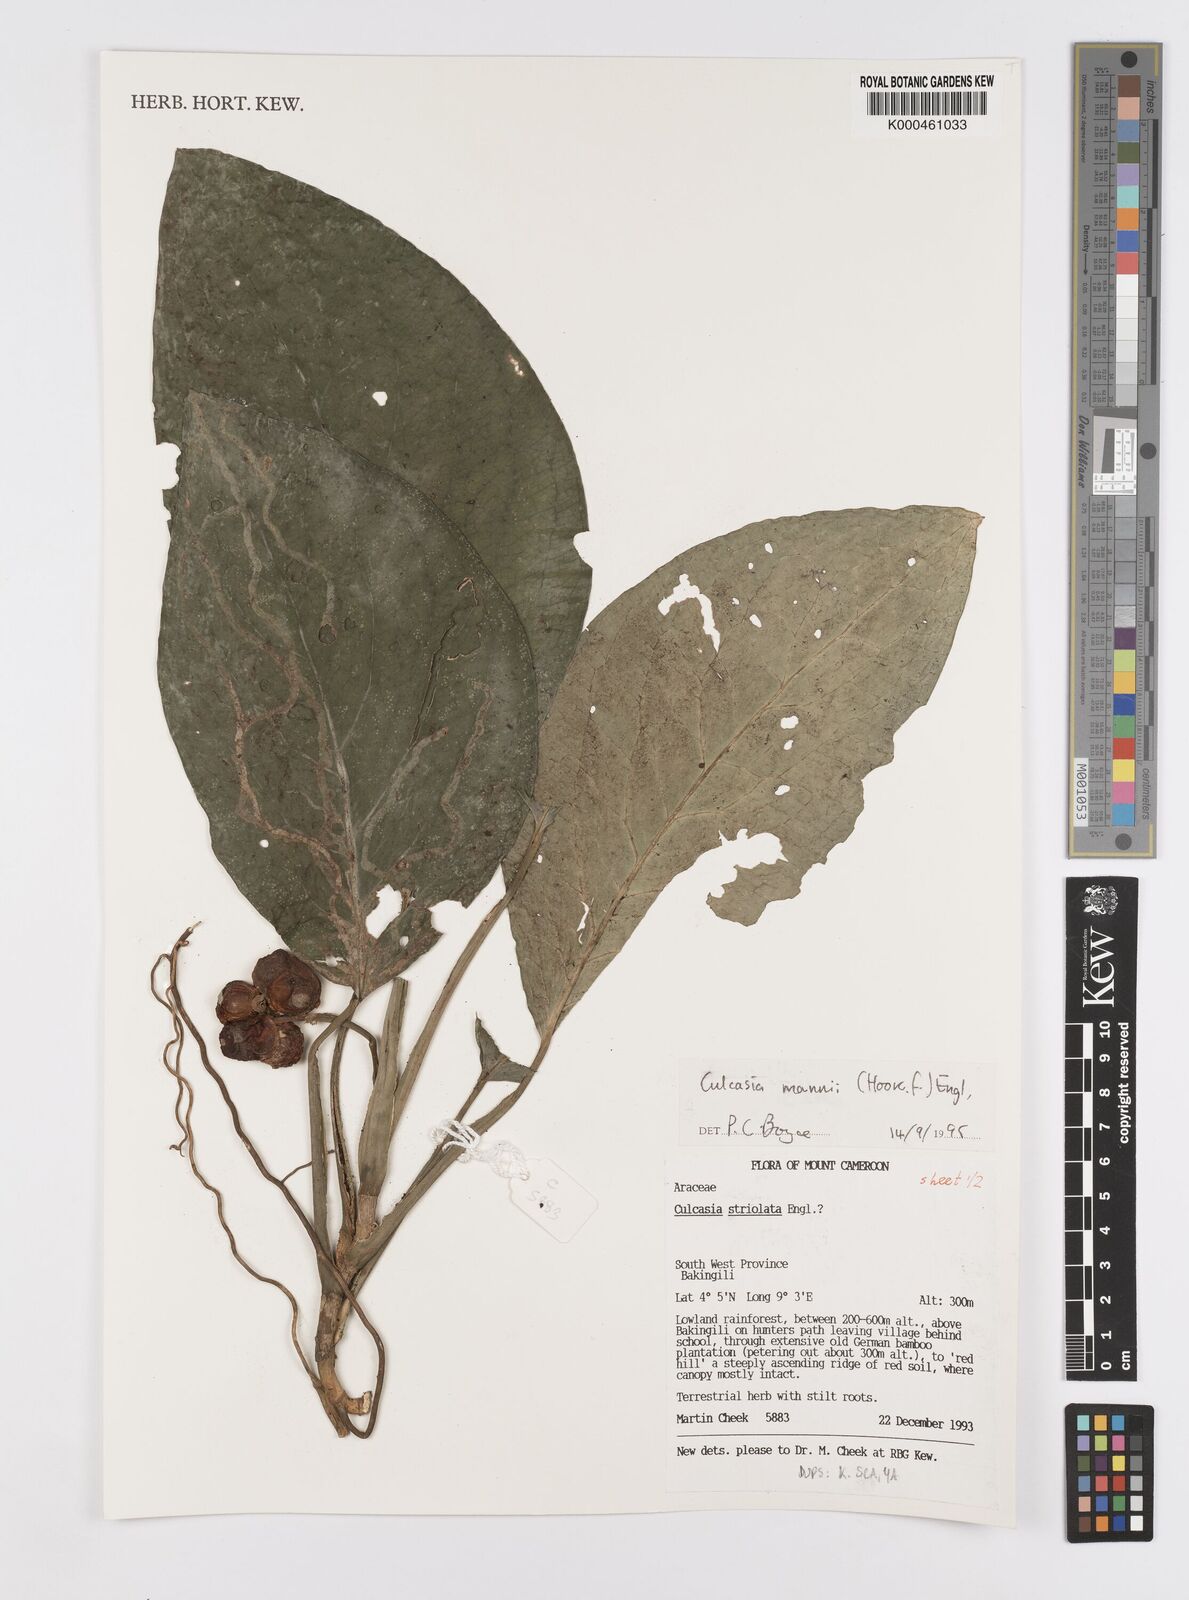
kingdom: Plantae
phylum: Tracheophyta
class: Liliopsida
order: Alismatales
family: Araceae
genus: Culcasia
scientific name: Culcasia mannii
